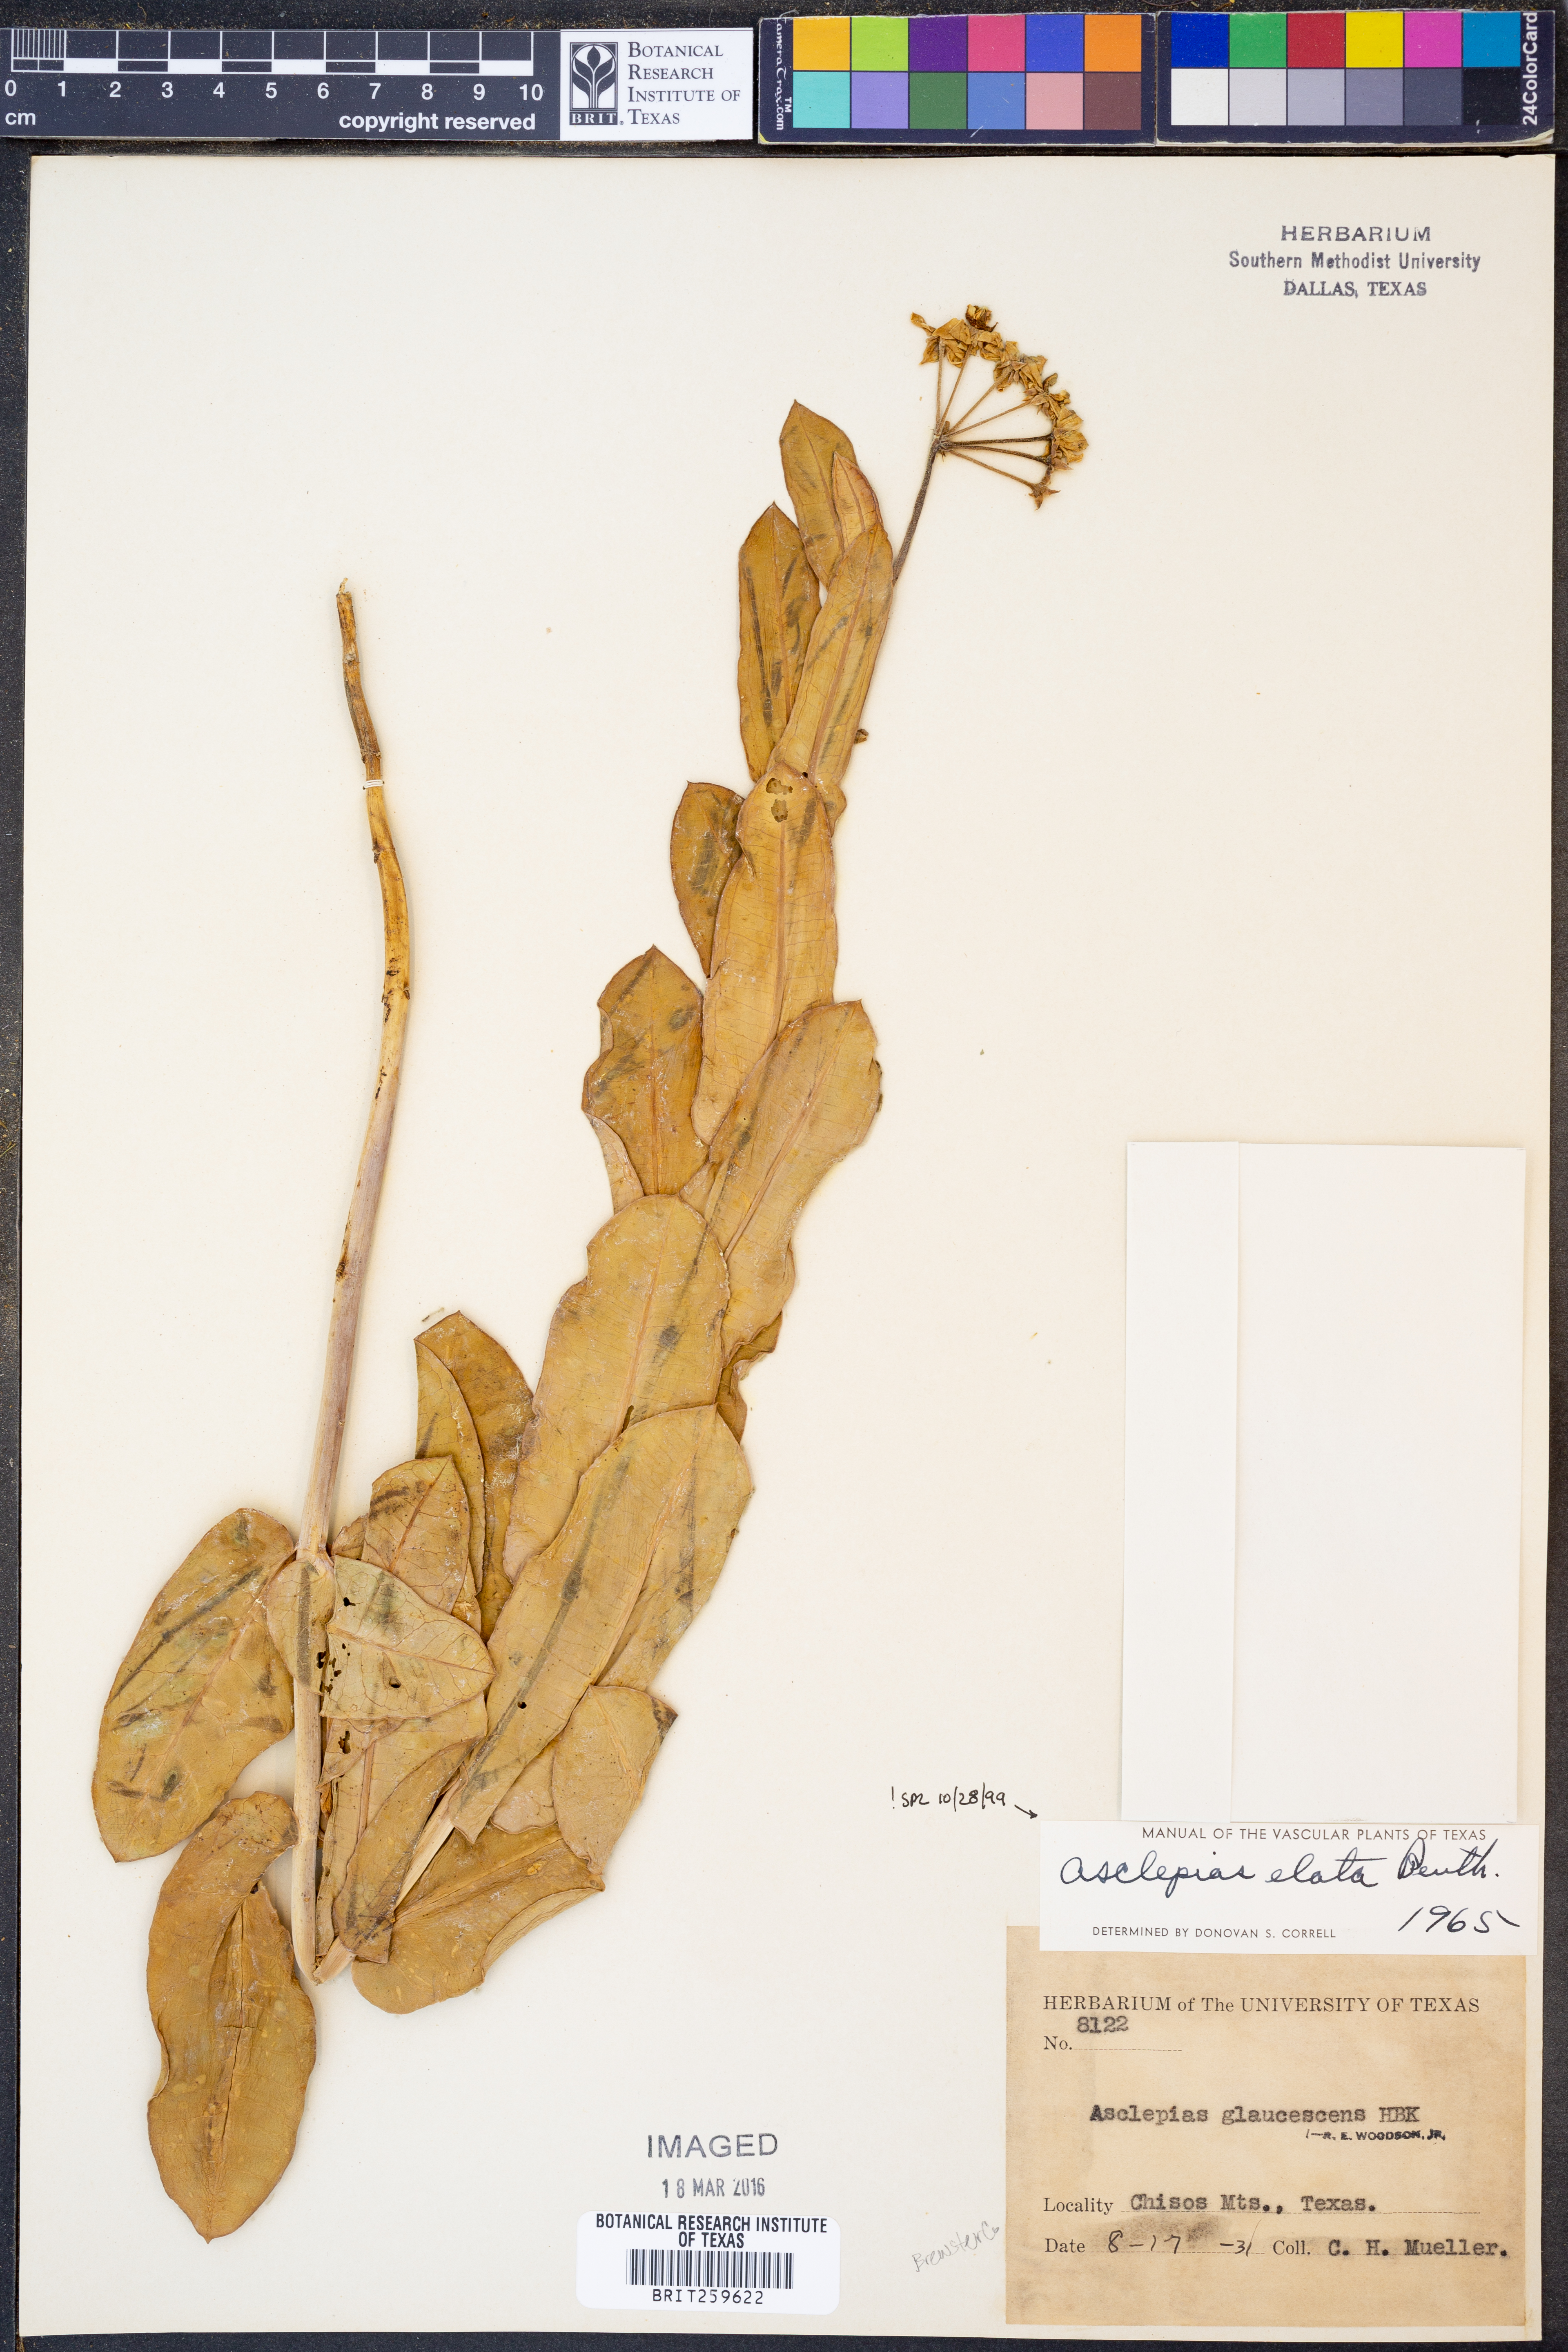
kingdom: Plantae
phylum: Tracheophyta
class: Magnoliopsida
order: Gentianales
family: Apocynaceae
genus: Asclepias
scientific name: Asclepias elata
